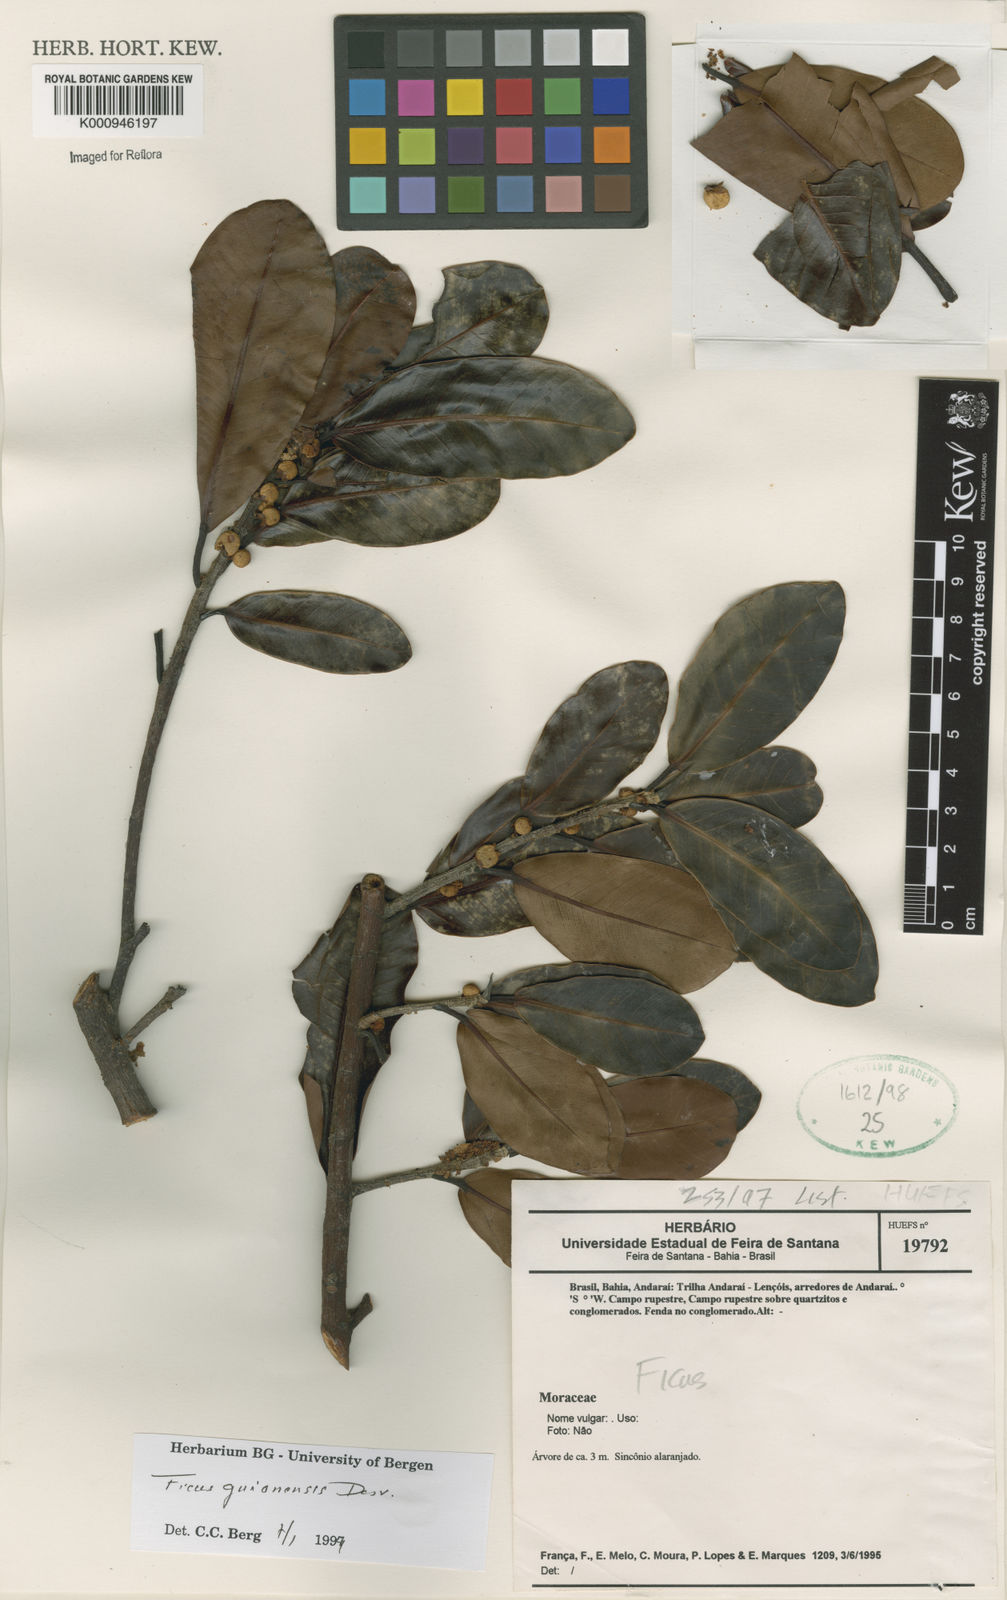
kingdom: Plantae
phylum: Tracheophyta
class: Magnoliopsida
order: Rosales
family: Moraceae
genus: Ficus
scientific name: Ficus americana
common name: Jamaican cherry fig
